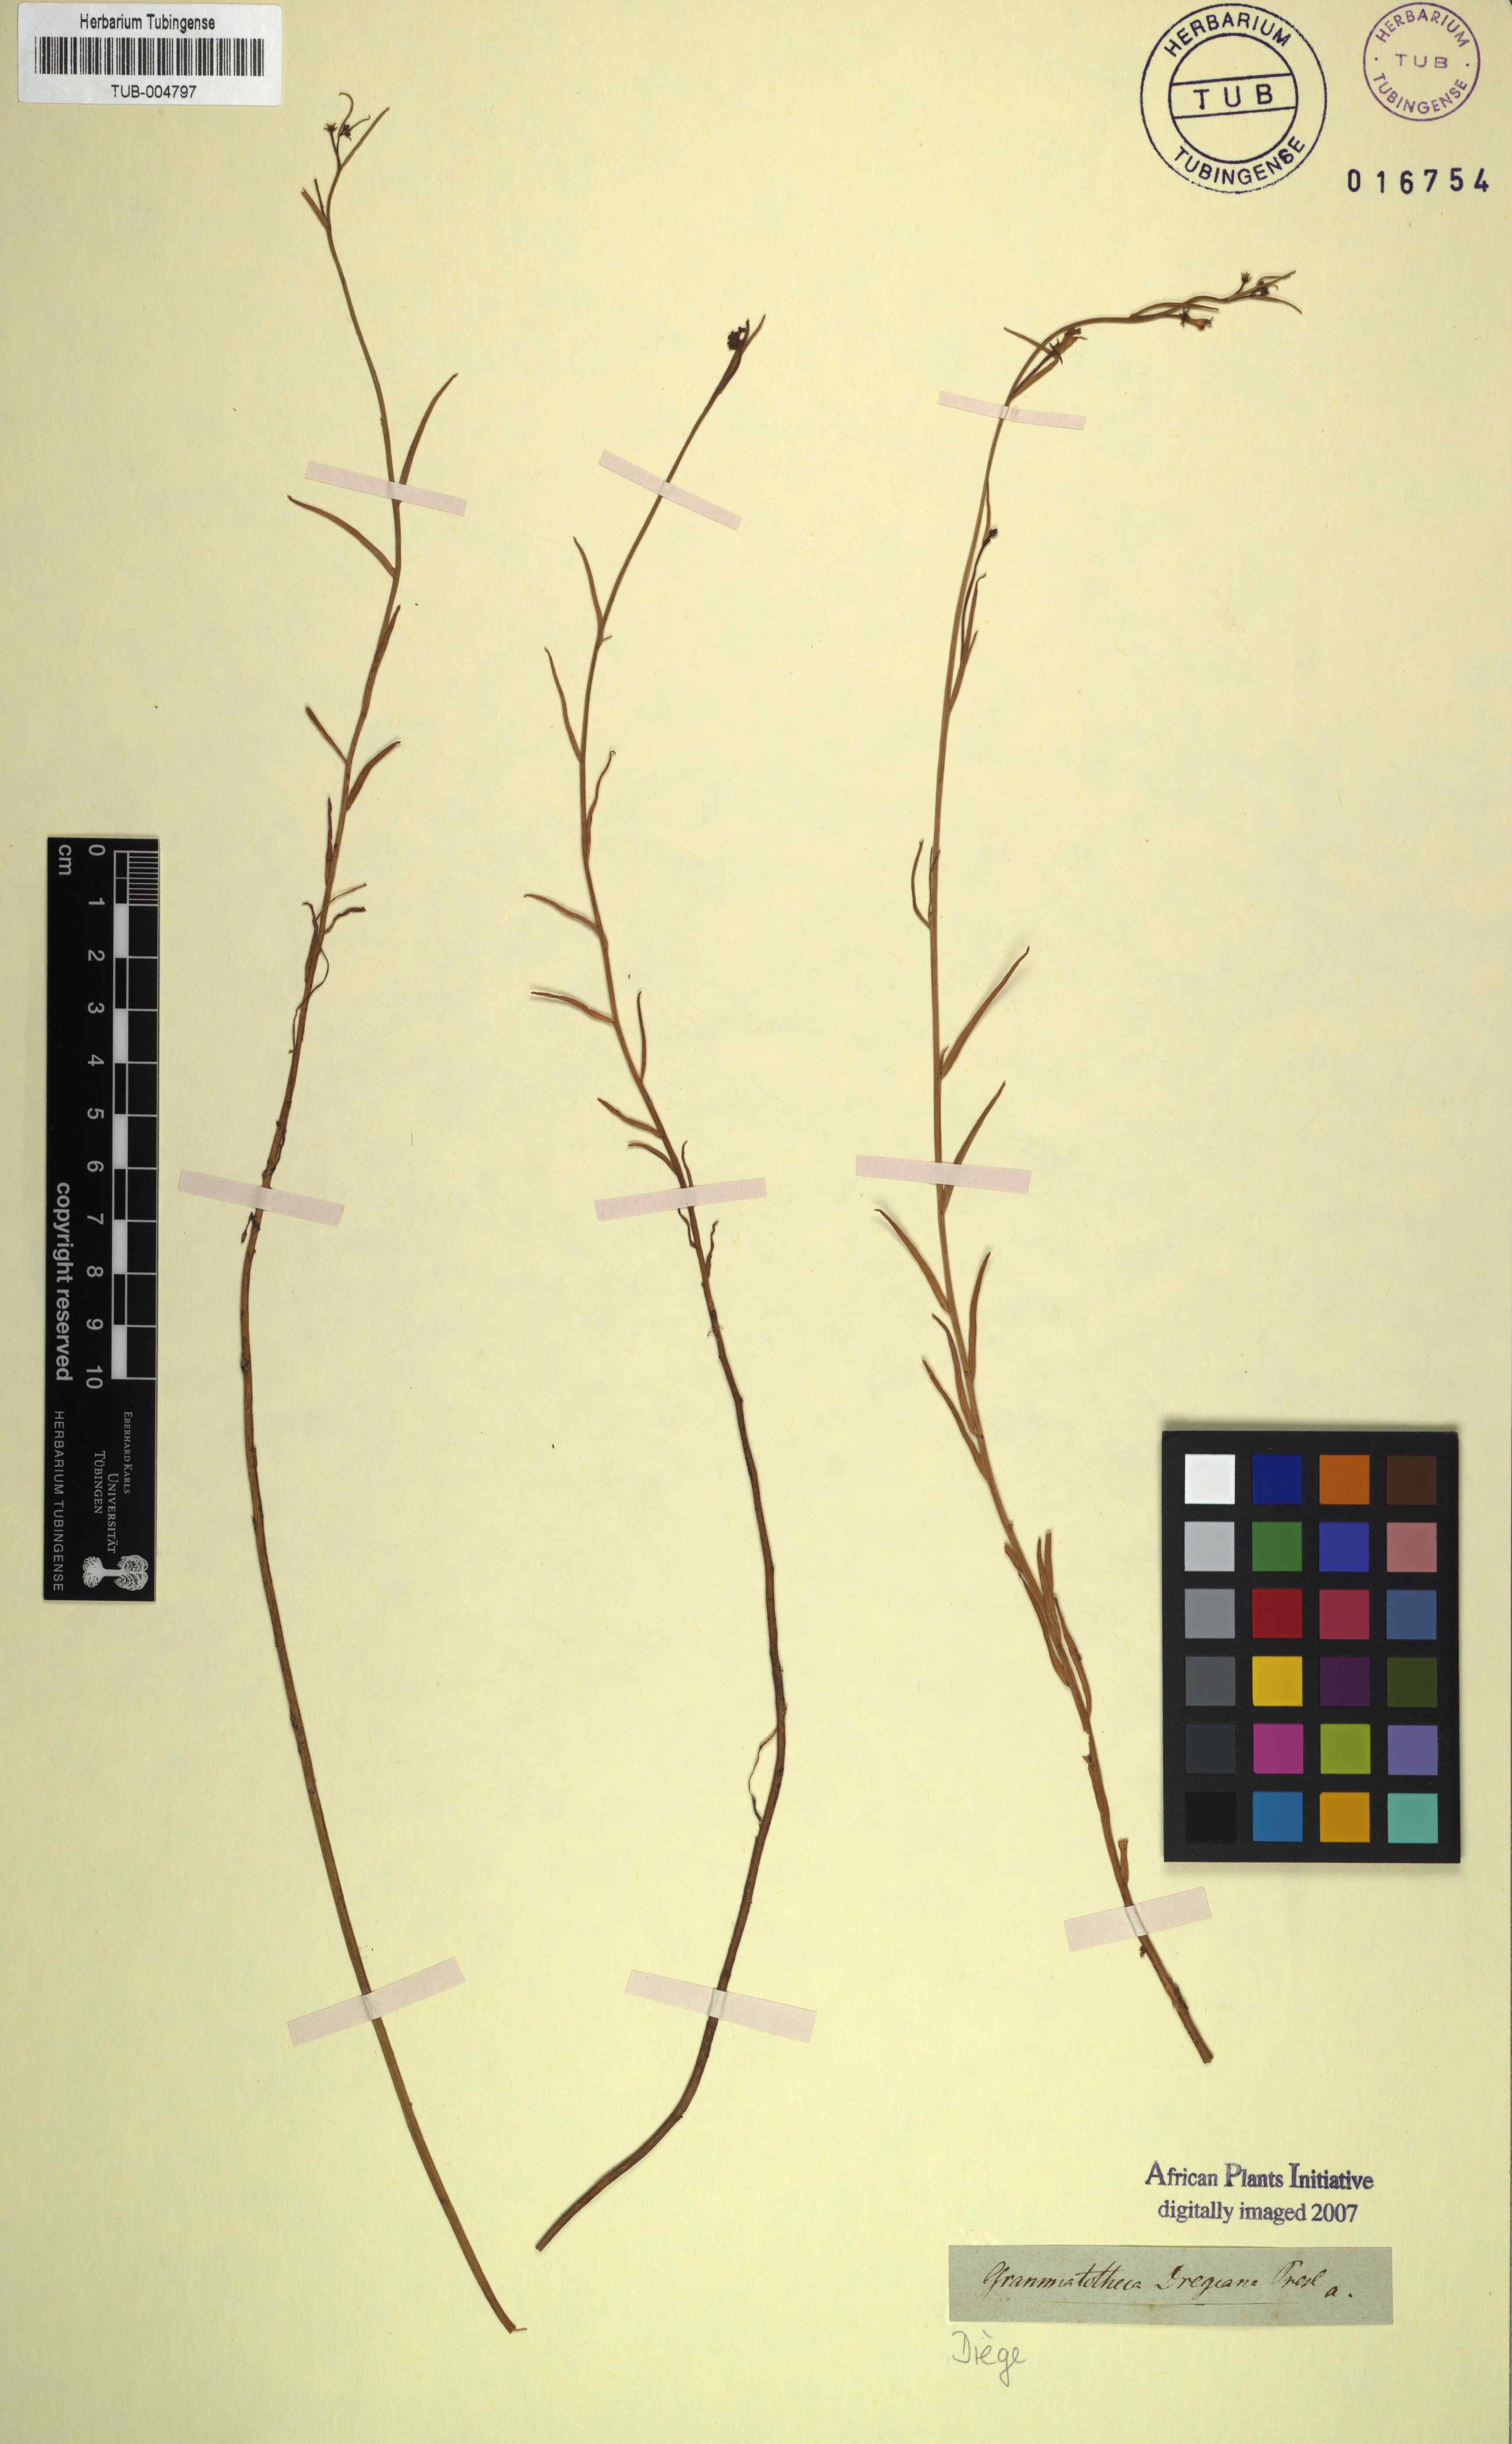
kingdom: Plantae
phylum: Tracheophyta
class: Magnoliopsida
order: Asterales
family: Campanulaceae
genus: Grammatotheca
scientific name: Grammatotheca bergiana
